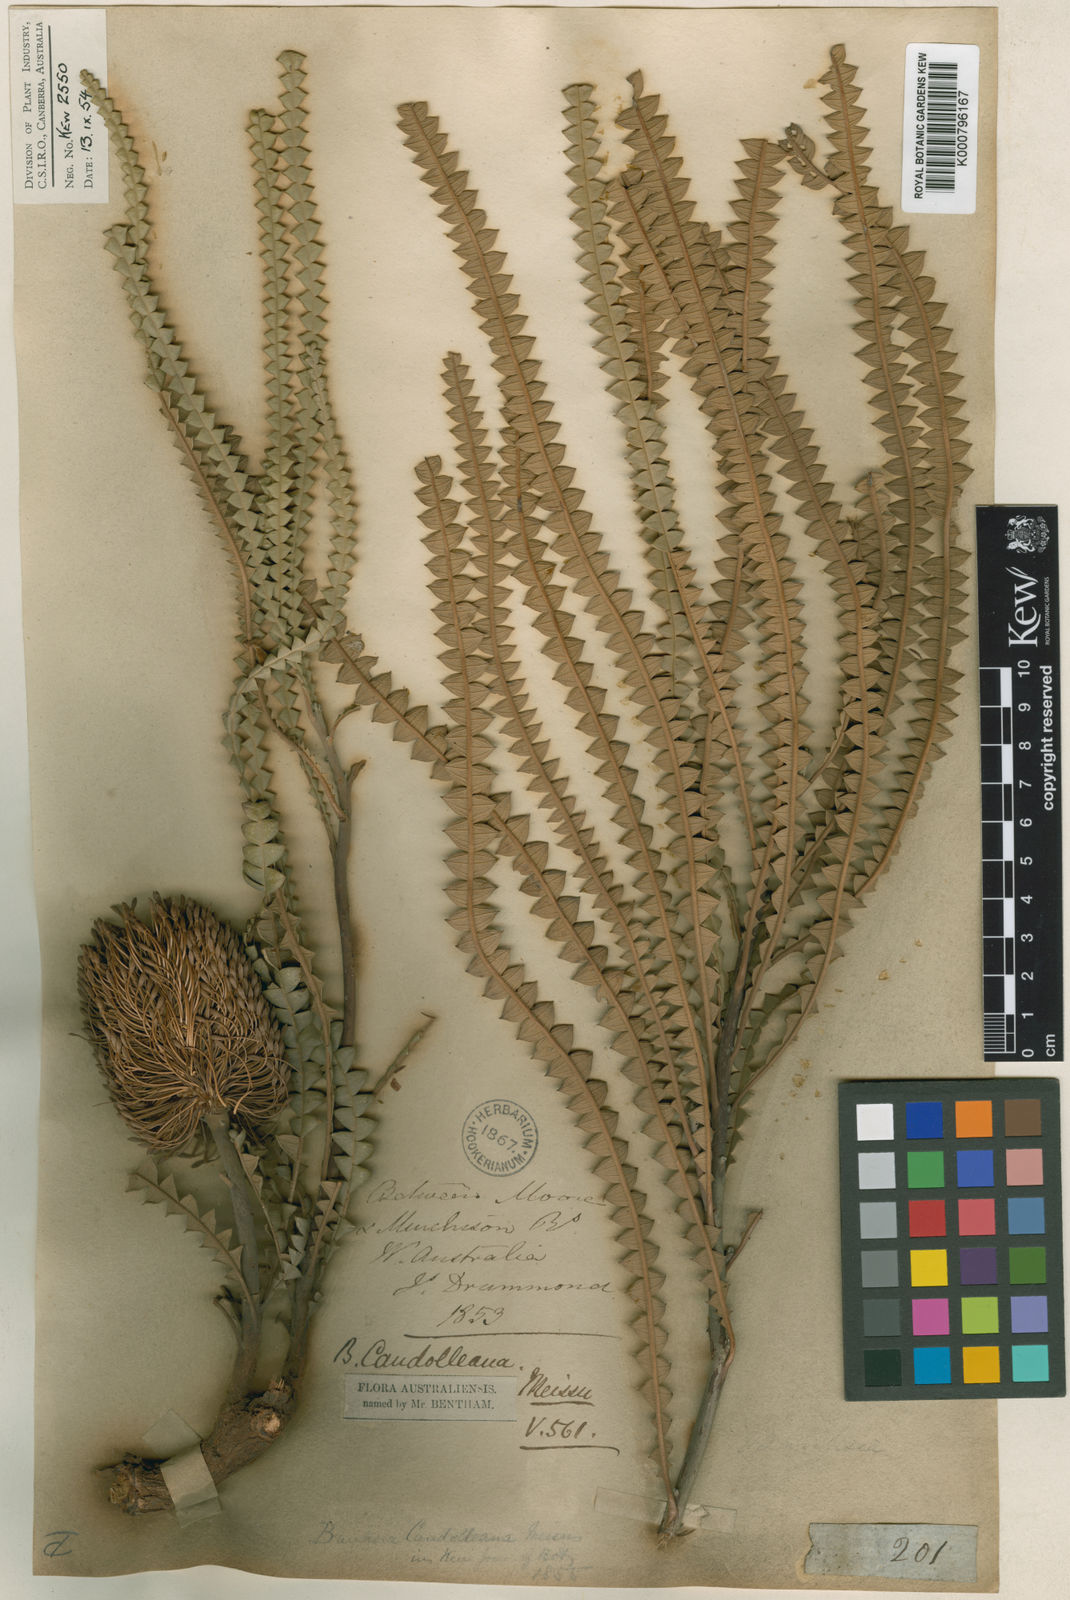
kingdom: Plantae
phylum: Tracheophyta
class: Magnoliopsida
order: Proteales
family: Proteaceae
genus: Banksia
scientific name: Banksia candolleana
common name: Propeller banksia
